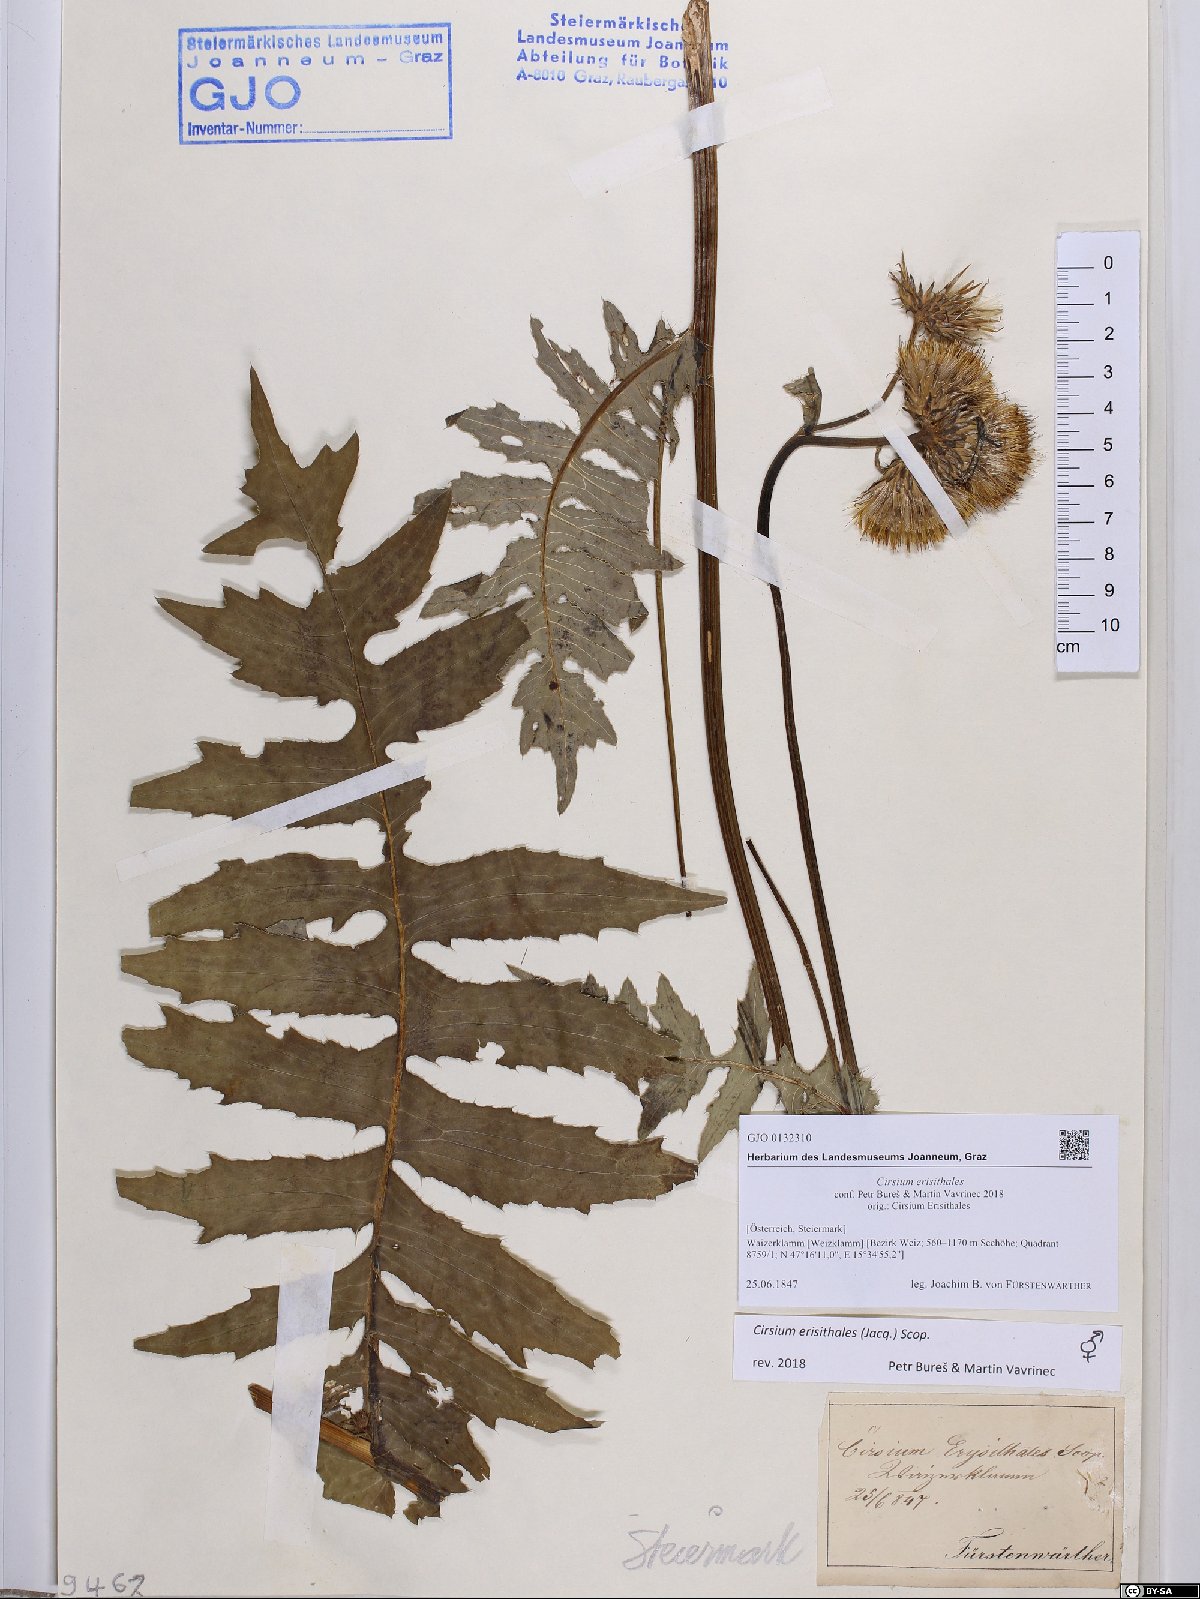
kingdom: Plantae
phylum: Tracheophyta
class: Magnoliopsida
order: Asterales
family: Asteraceae
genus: Cirsium
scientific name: Cirsium erisithales
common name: Yellow thistle
